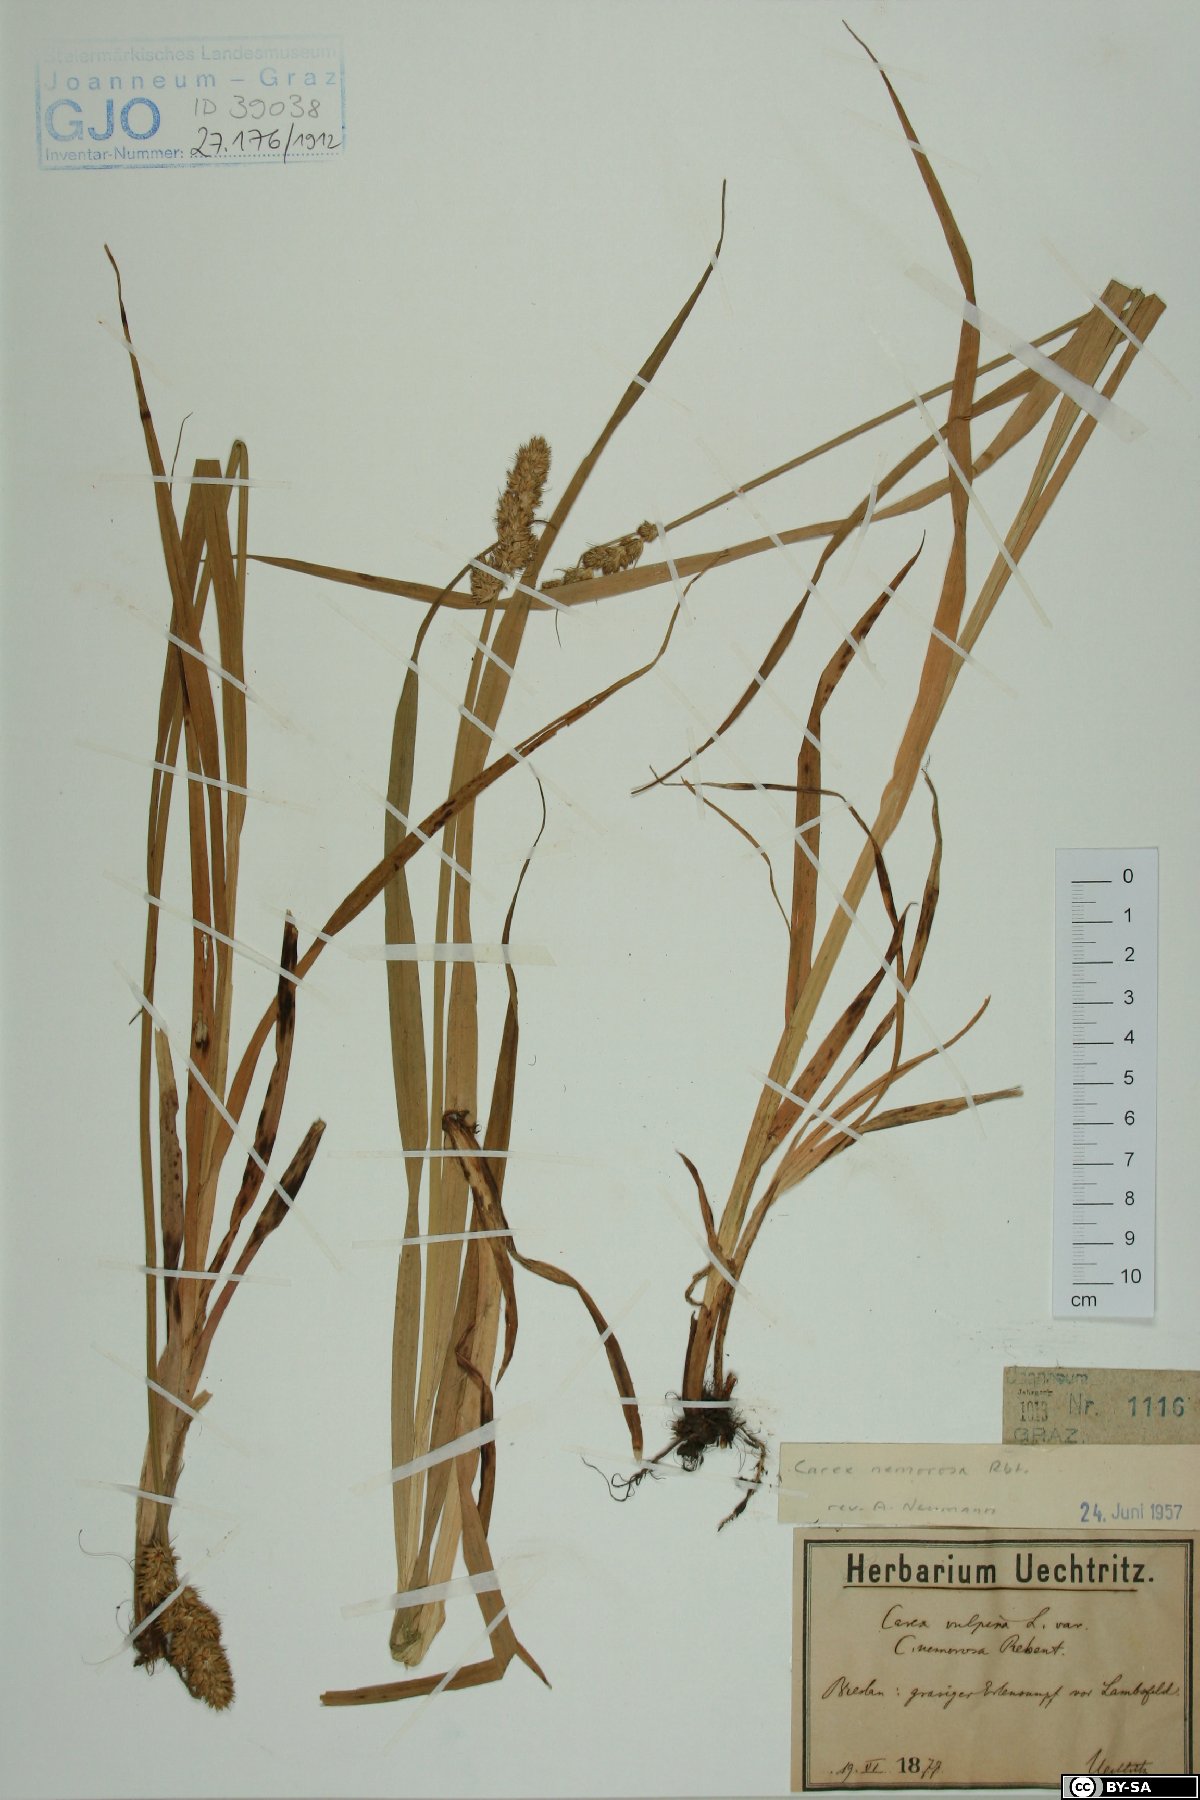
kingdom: Plantae
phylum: Tracheophyta
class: Liliopsida
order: Poales
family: Cyperaceae
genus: Carex
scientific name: Carex otrubae
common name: False fox-sedge
